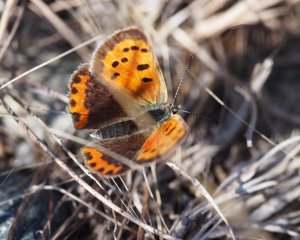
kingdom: Animalia
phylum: Arthropoda
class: Insecta
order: Lepidoptera
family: Lycaenidae
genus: Lycaena
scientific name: Lycaena phlaeas
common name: American Copper
